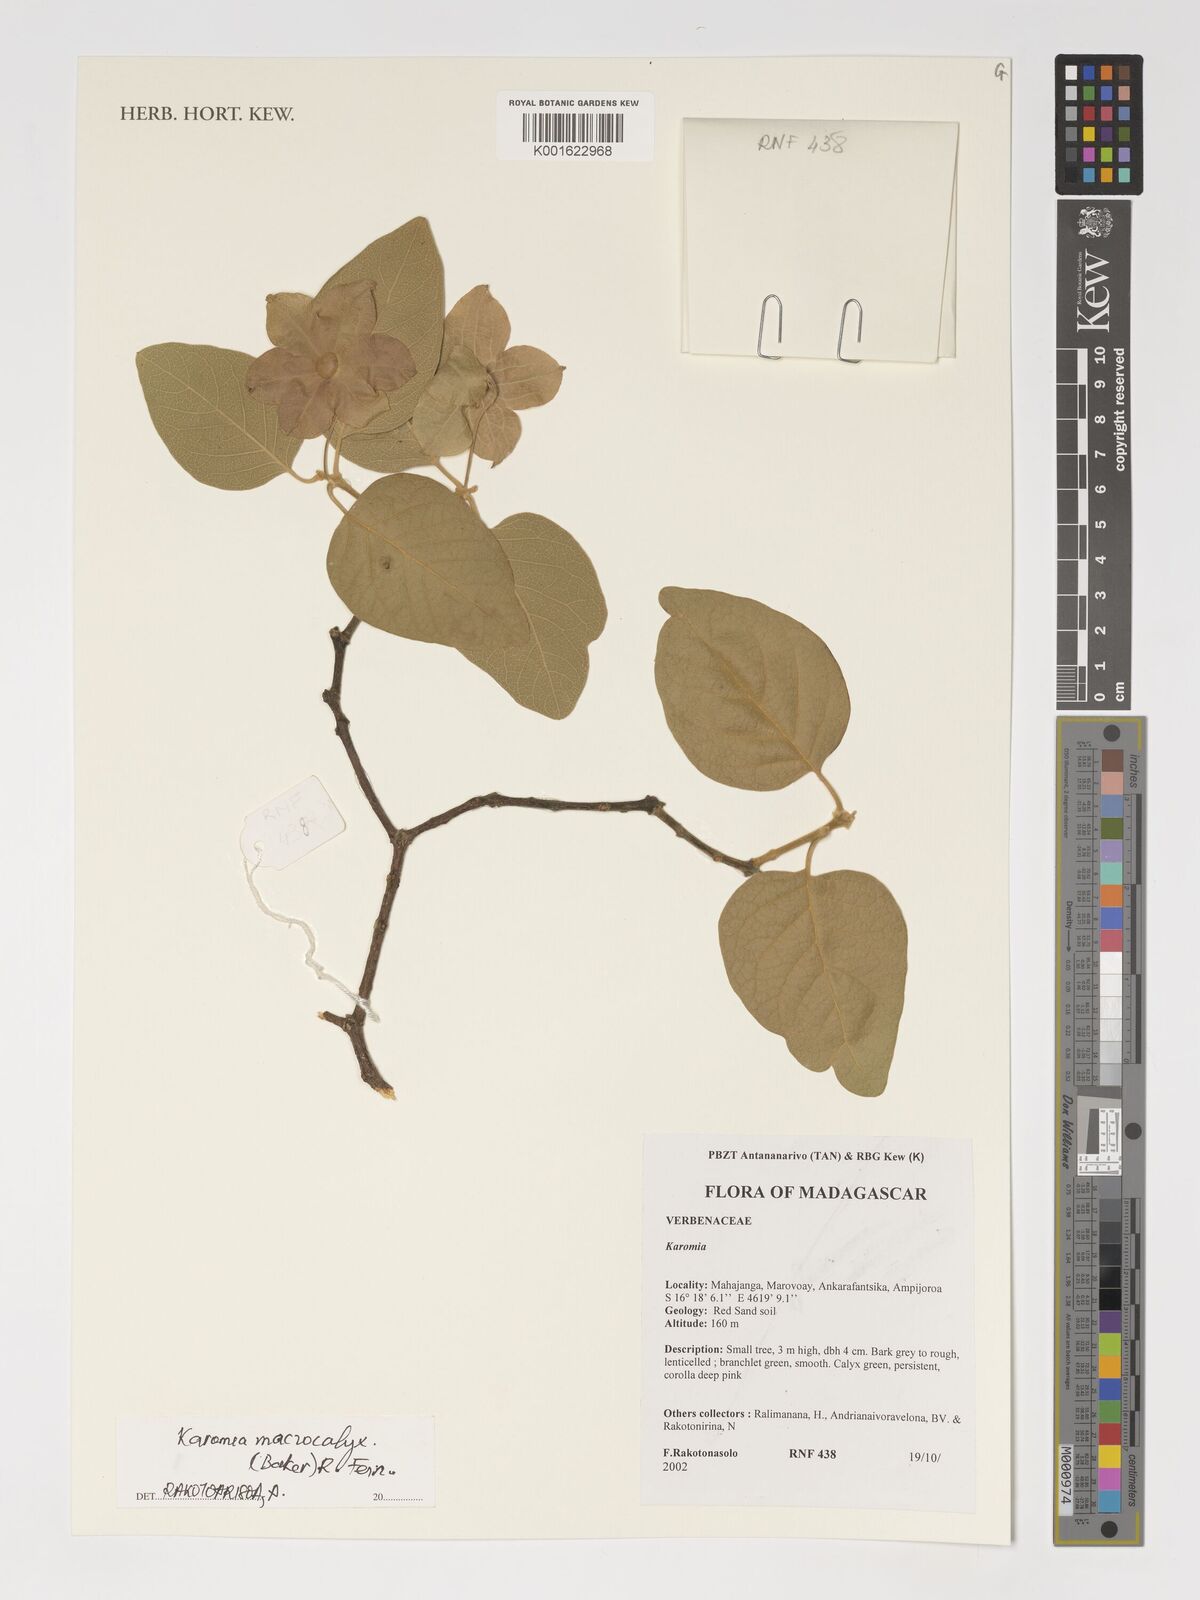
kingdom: Plantae
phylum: Tracheophyta
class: Magnoliopsida
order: Lamiales
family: Lamiaceae
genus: Karomia
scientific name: Karomia macrocalyx
